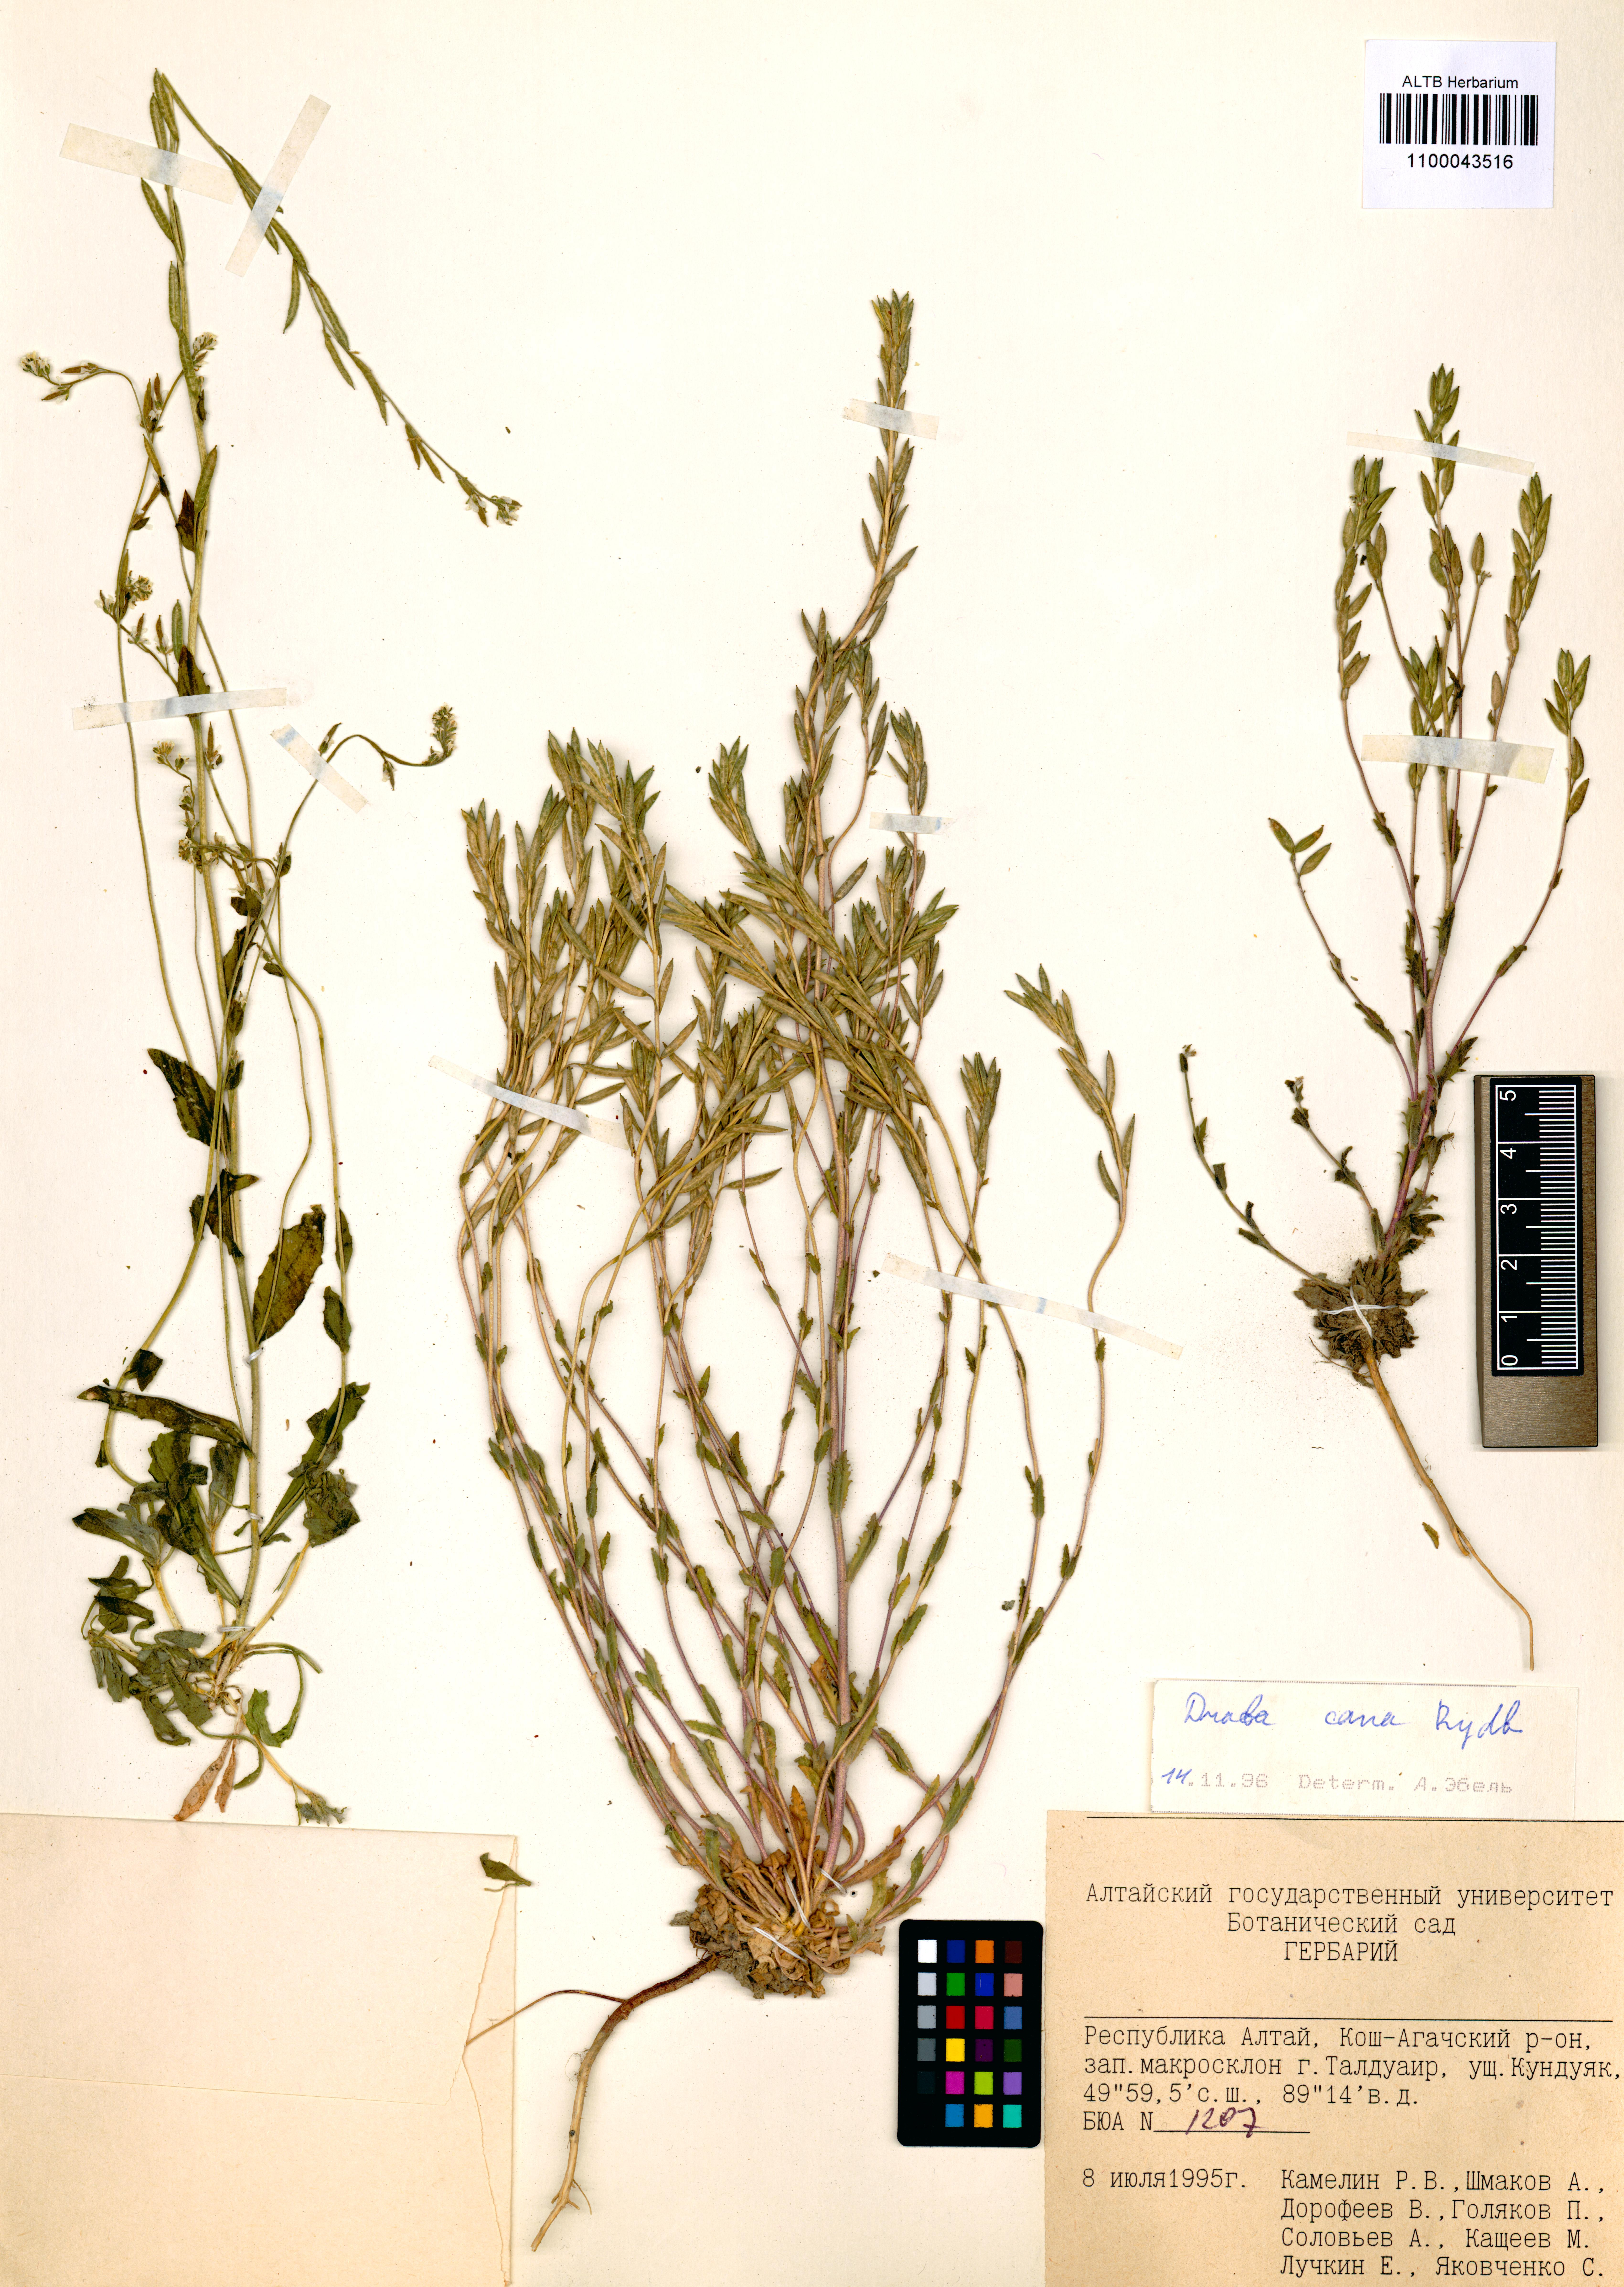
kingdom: Plantae
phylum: Tracheophyta
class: Magnoliopsida
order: Brassicales
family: Brassicaceae
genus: Draba
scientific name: Draba cana
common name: Hoary draba
